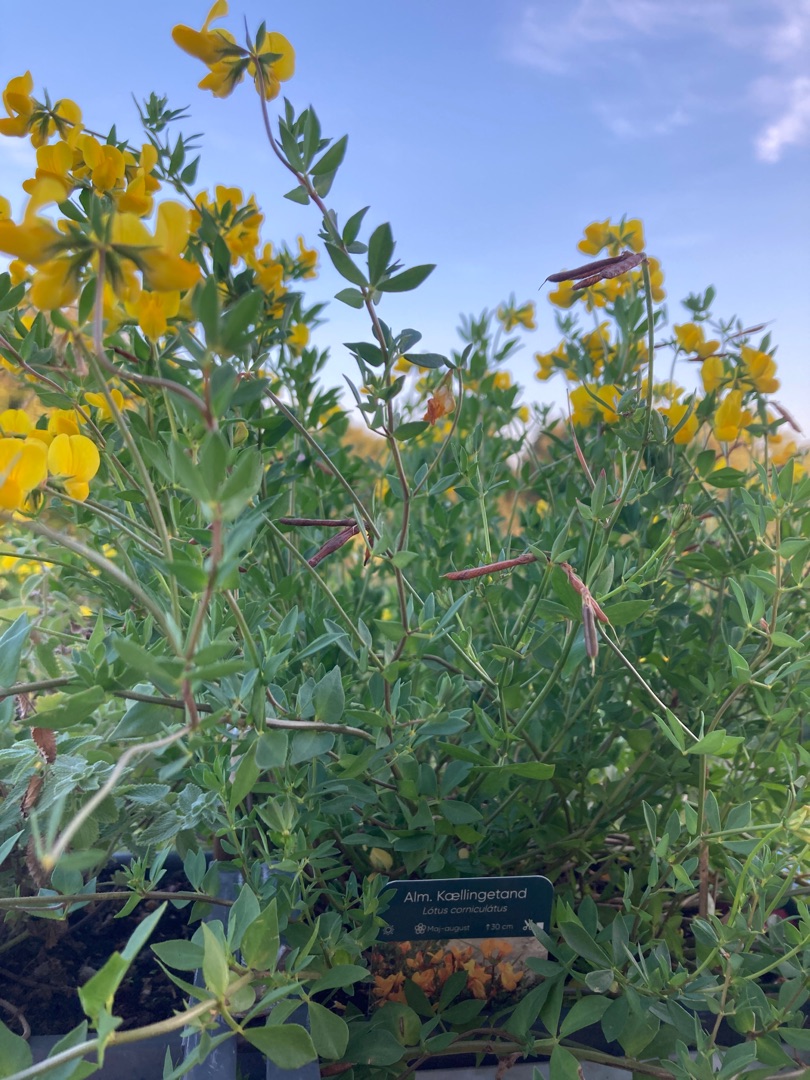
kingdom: Plantae
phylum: Tracheophyta
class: Magnoliopsida
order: Fabales
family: Fabaceae
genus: Lotus
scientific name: Lotus corniculatus
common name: Almindelig kællingetand (varietet)
